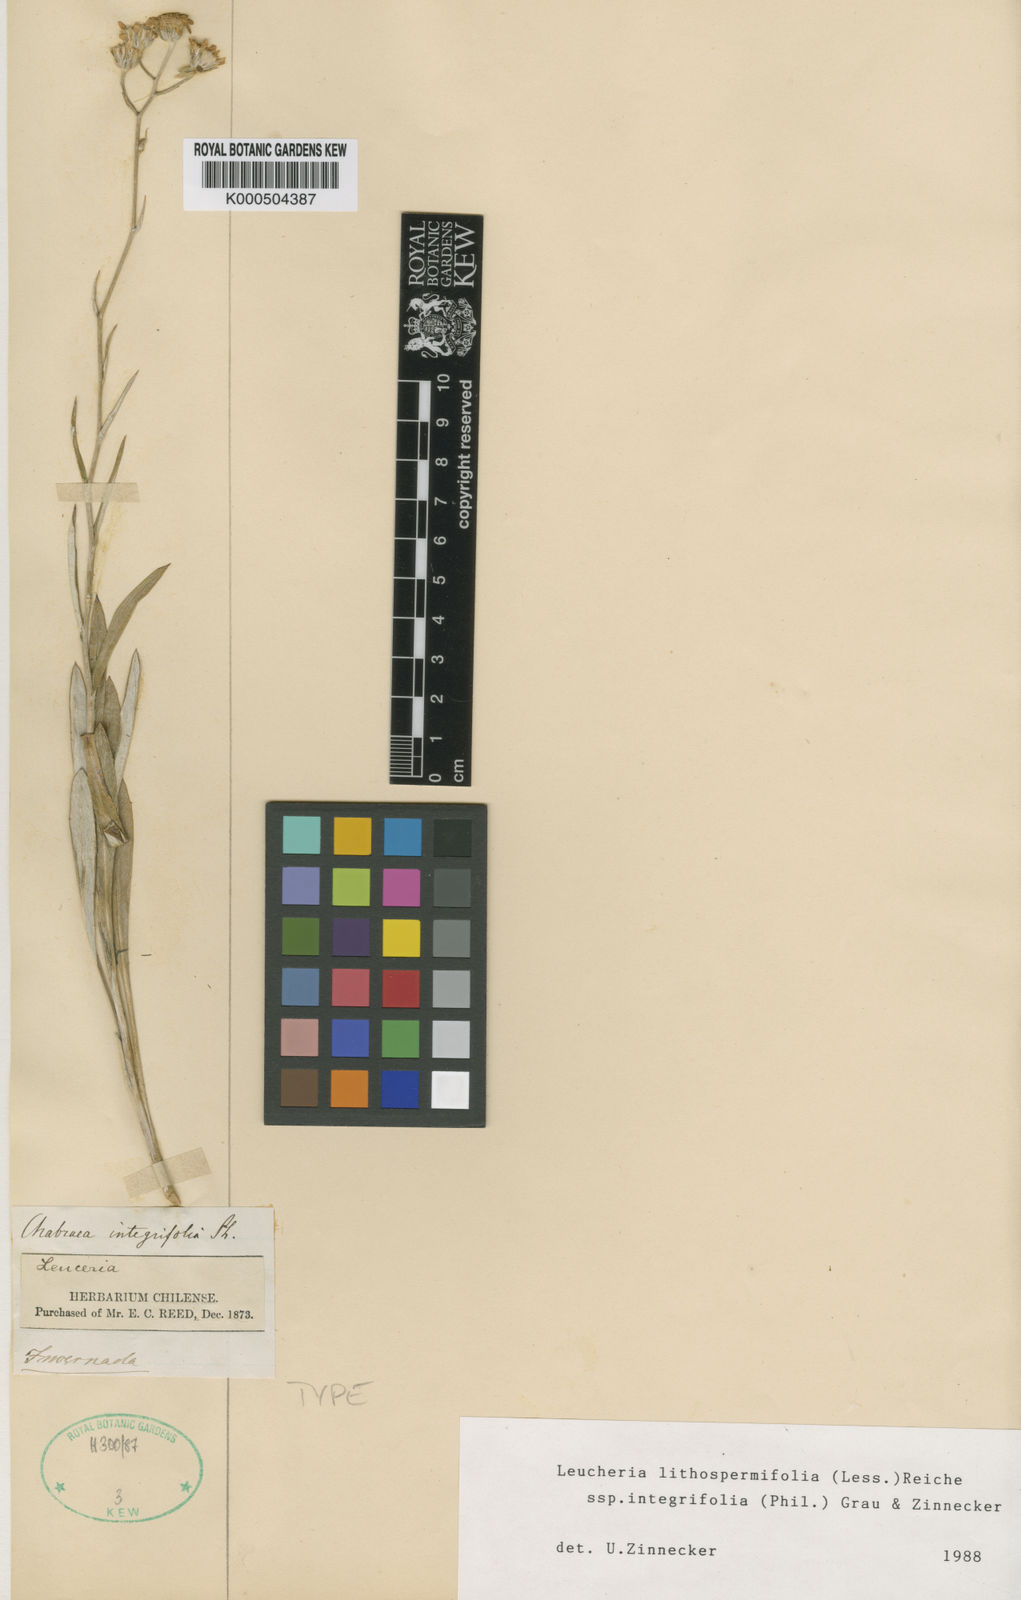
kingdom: Plantae
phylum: Tracheophyta
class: Magnoliopsida
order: Asterales
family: Asteraceae
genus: Leucheria
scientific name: Leucheria lithospermifolia
